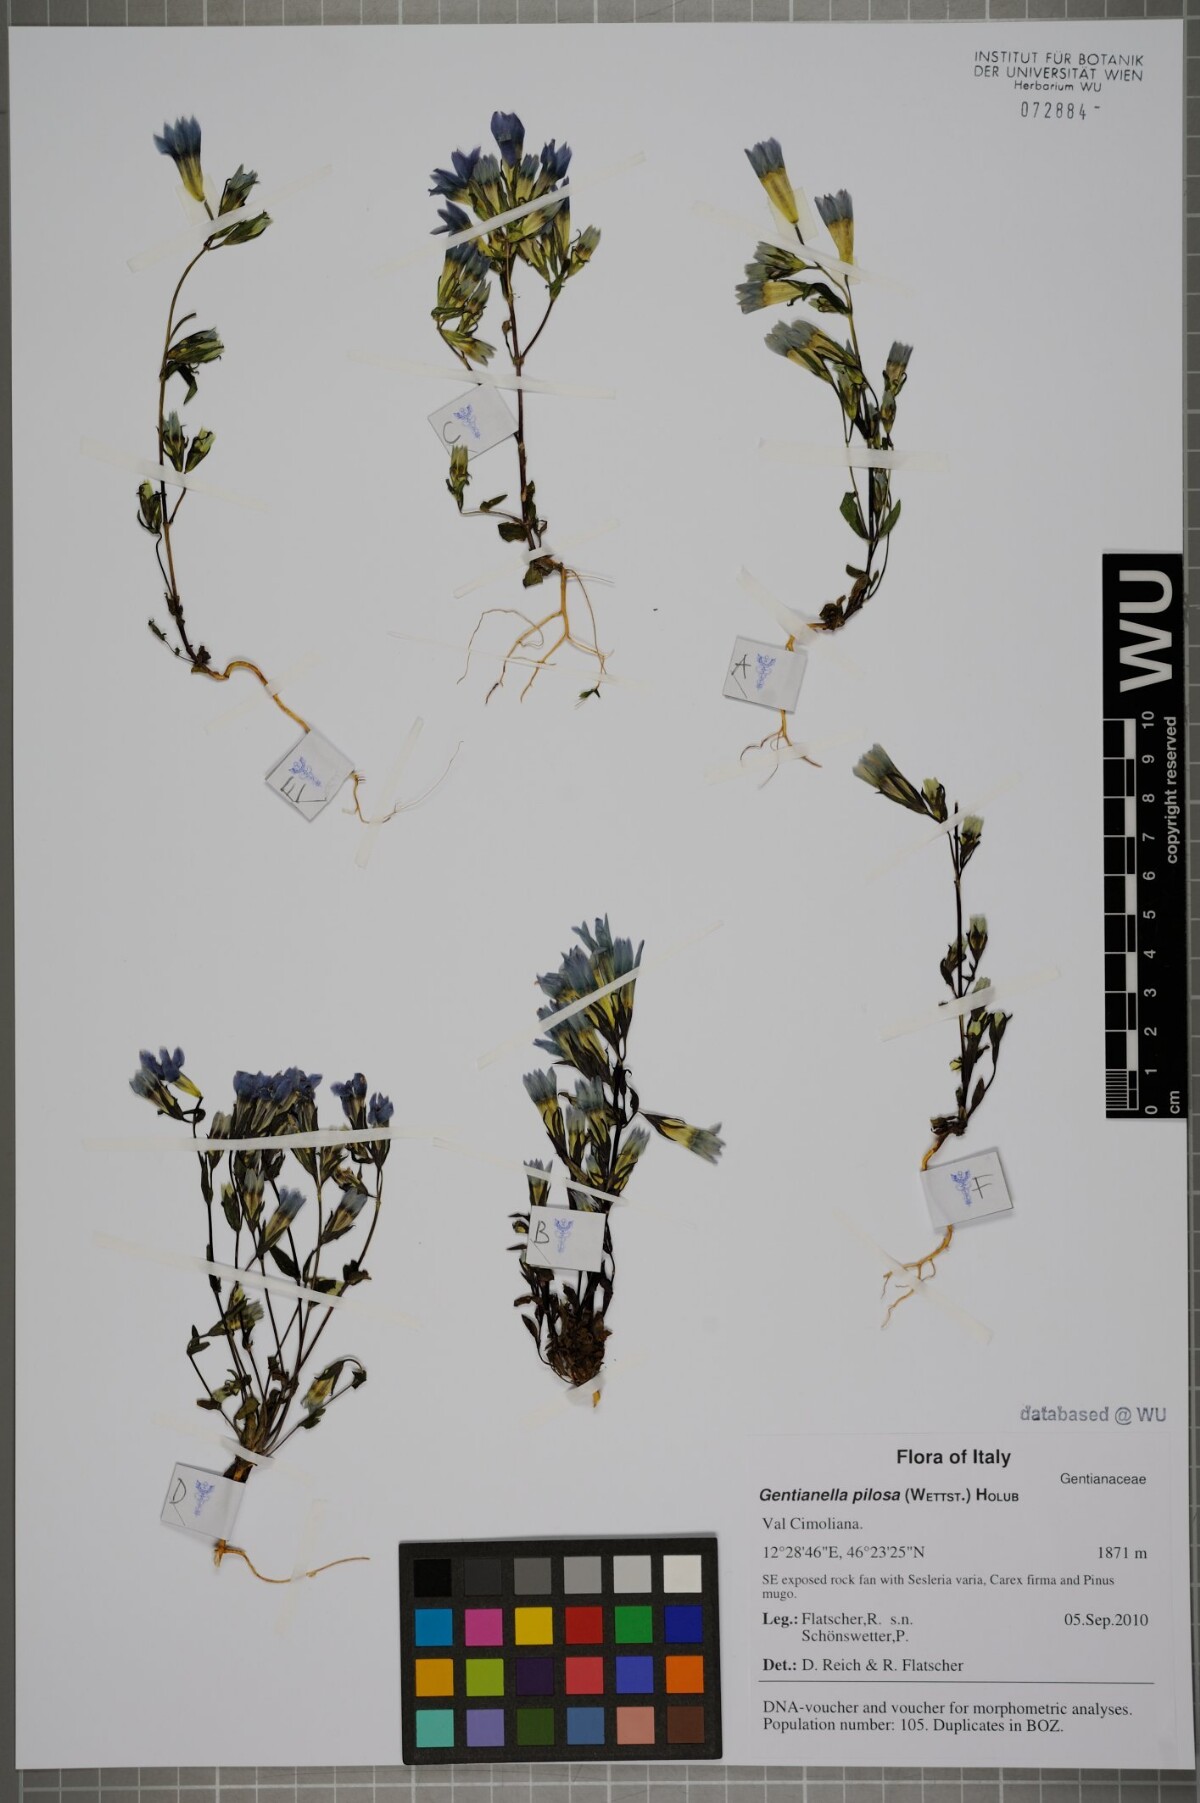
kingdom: Plantae
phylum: Tracheophyta
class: Magnoliopsida
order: Gentianales
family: Gentianaceae
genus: Gentianella
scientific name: Gentianella pilosa
